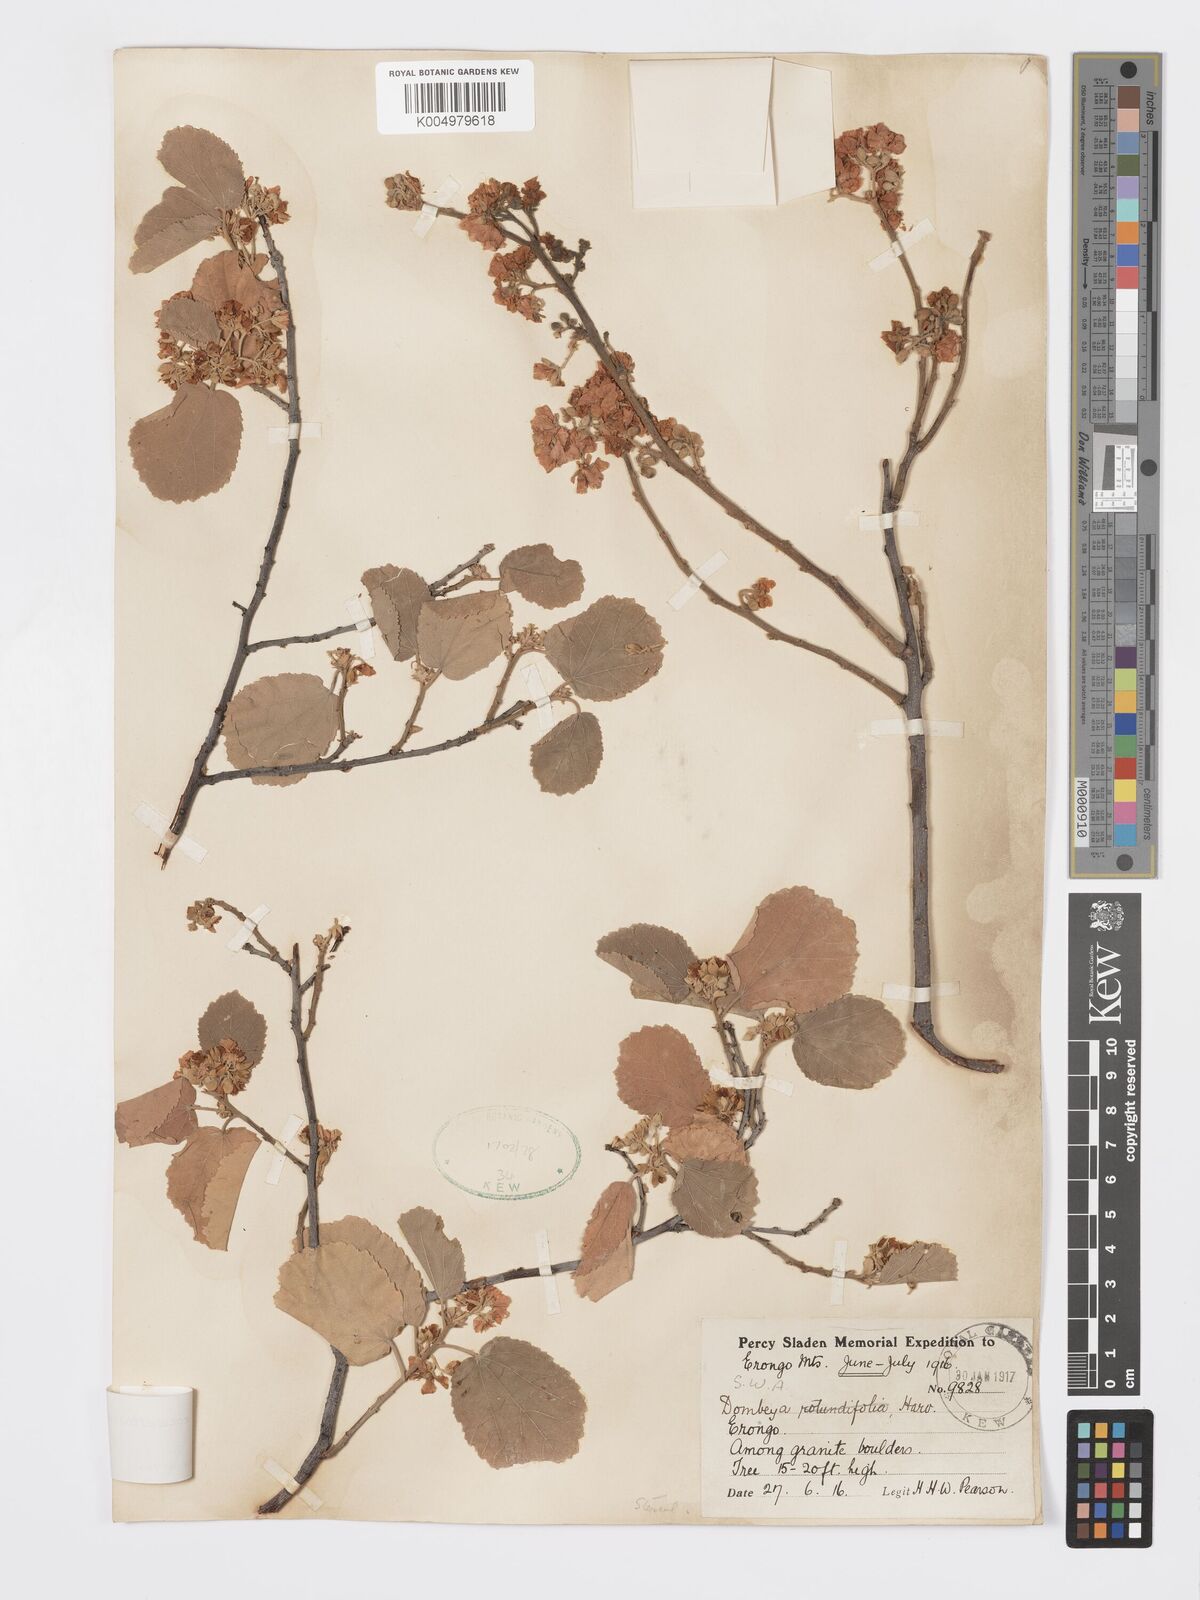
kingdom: Plantae
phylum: Tracheophyta
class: Magnoliopsida
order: Malvales
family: Malvaceae
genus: Dombeya
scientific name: Dombeya rotundifolia
